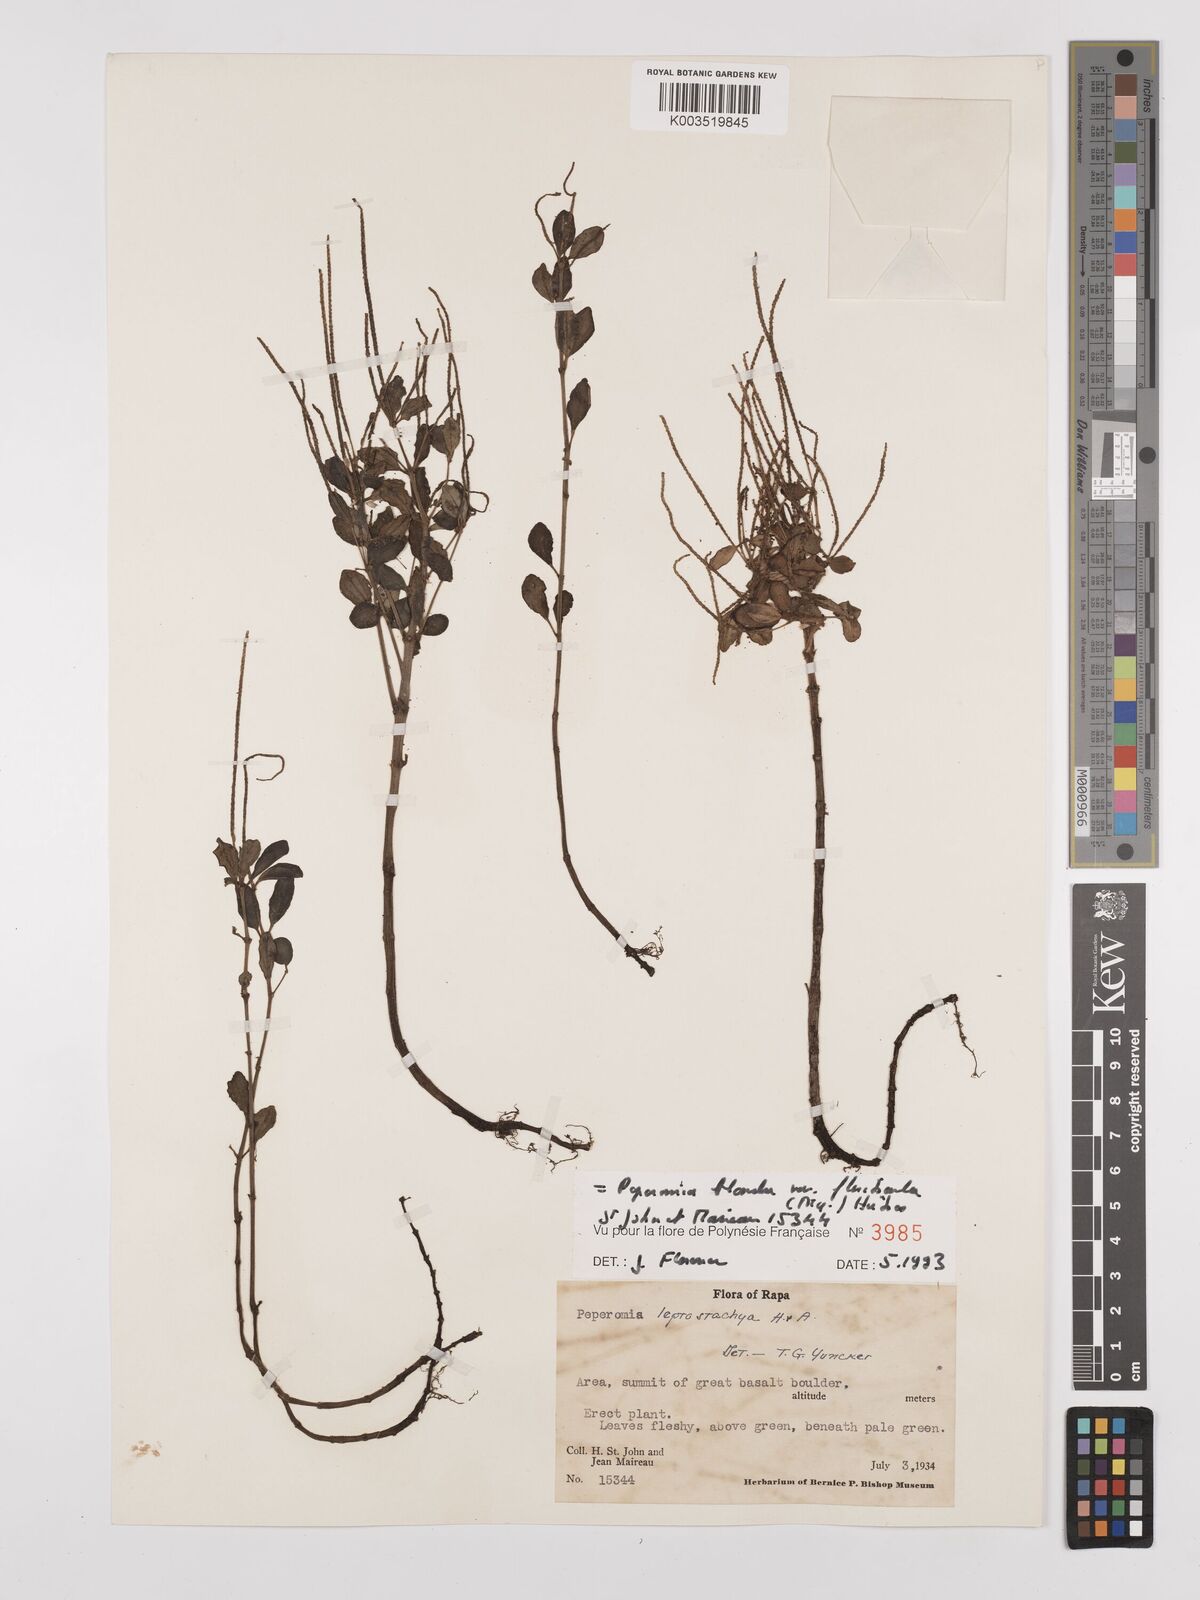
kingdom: Plantae
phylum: Tracheophyta
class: Magnoliopsida
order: Piperales
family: Piperaceae
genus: Peperomia
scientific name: Peperomia leptostachya
